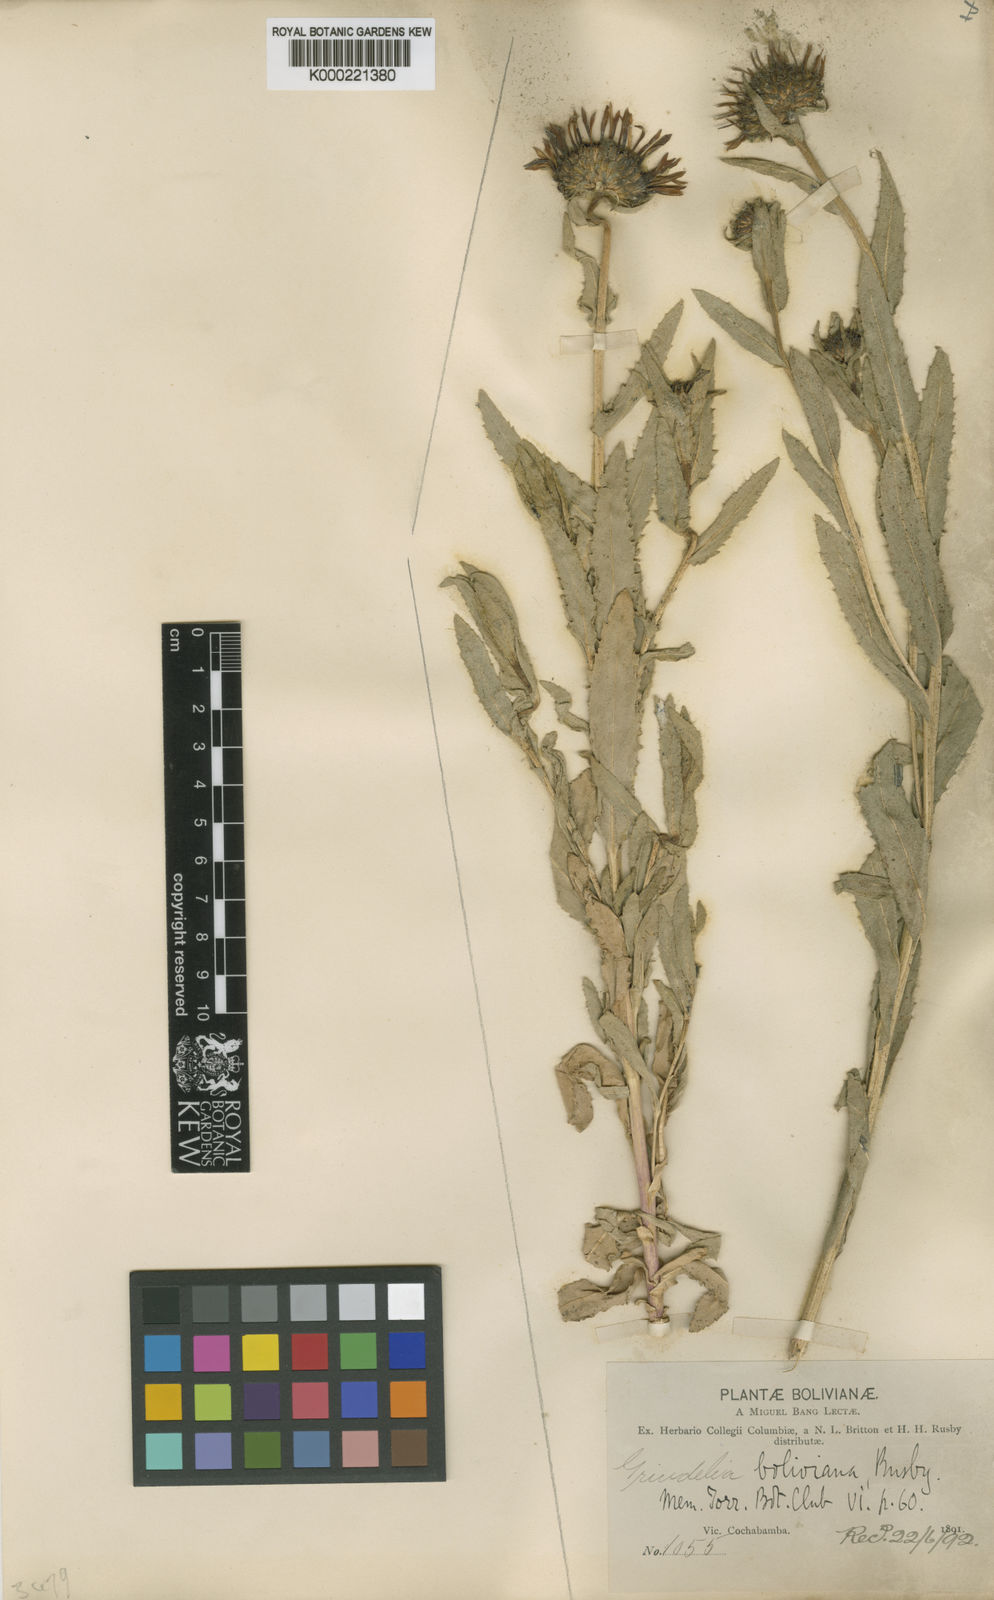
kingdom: Plantae
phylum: Tracheophyta
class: Magnoliopsida
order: Asterales
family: Asteraceae
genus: Grindelia
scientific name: Grindelia boliviana
